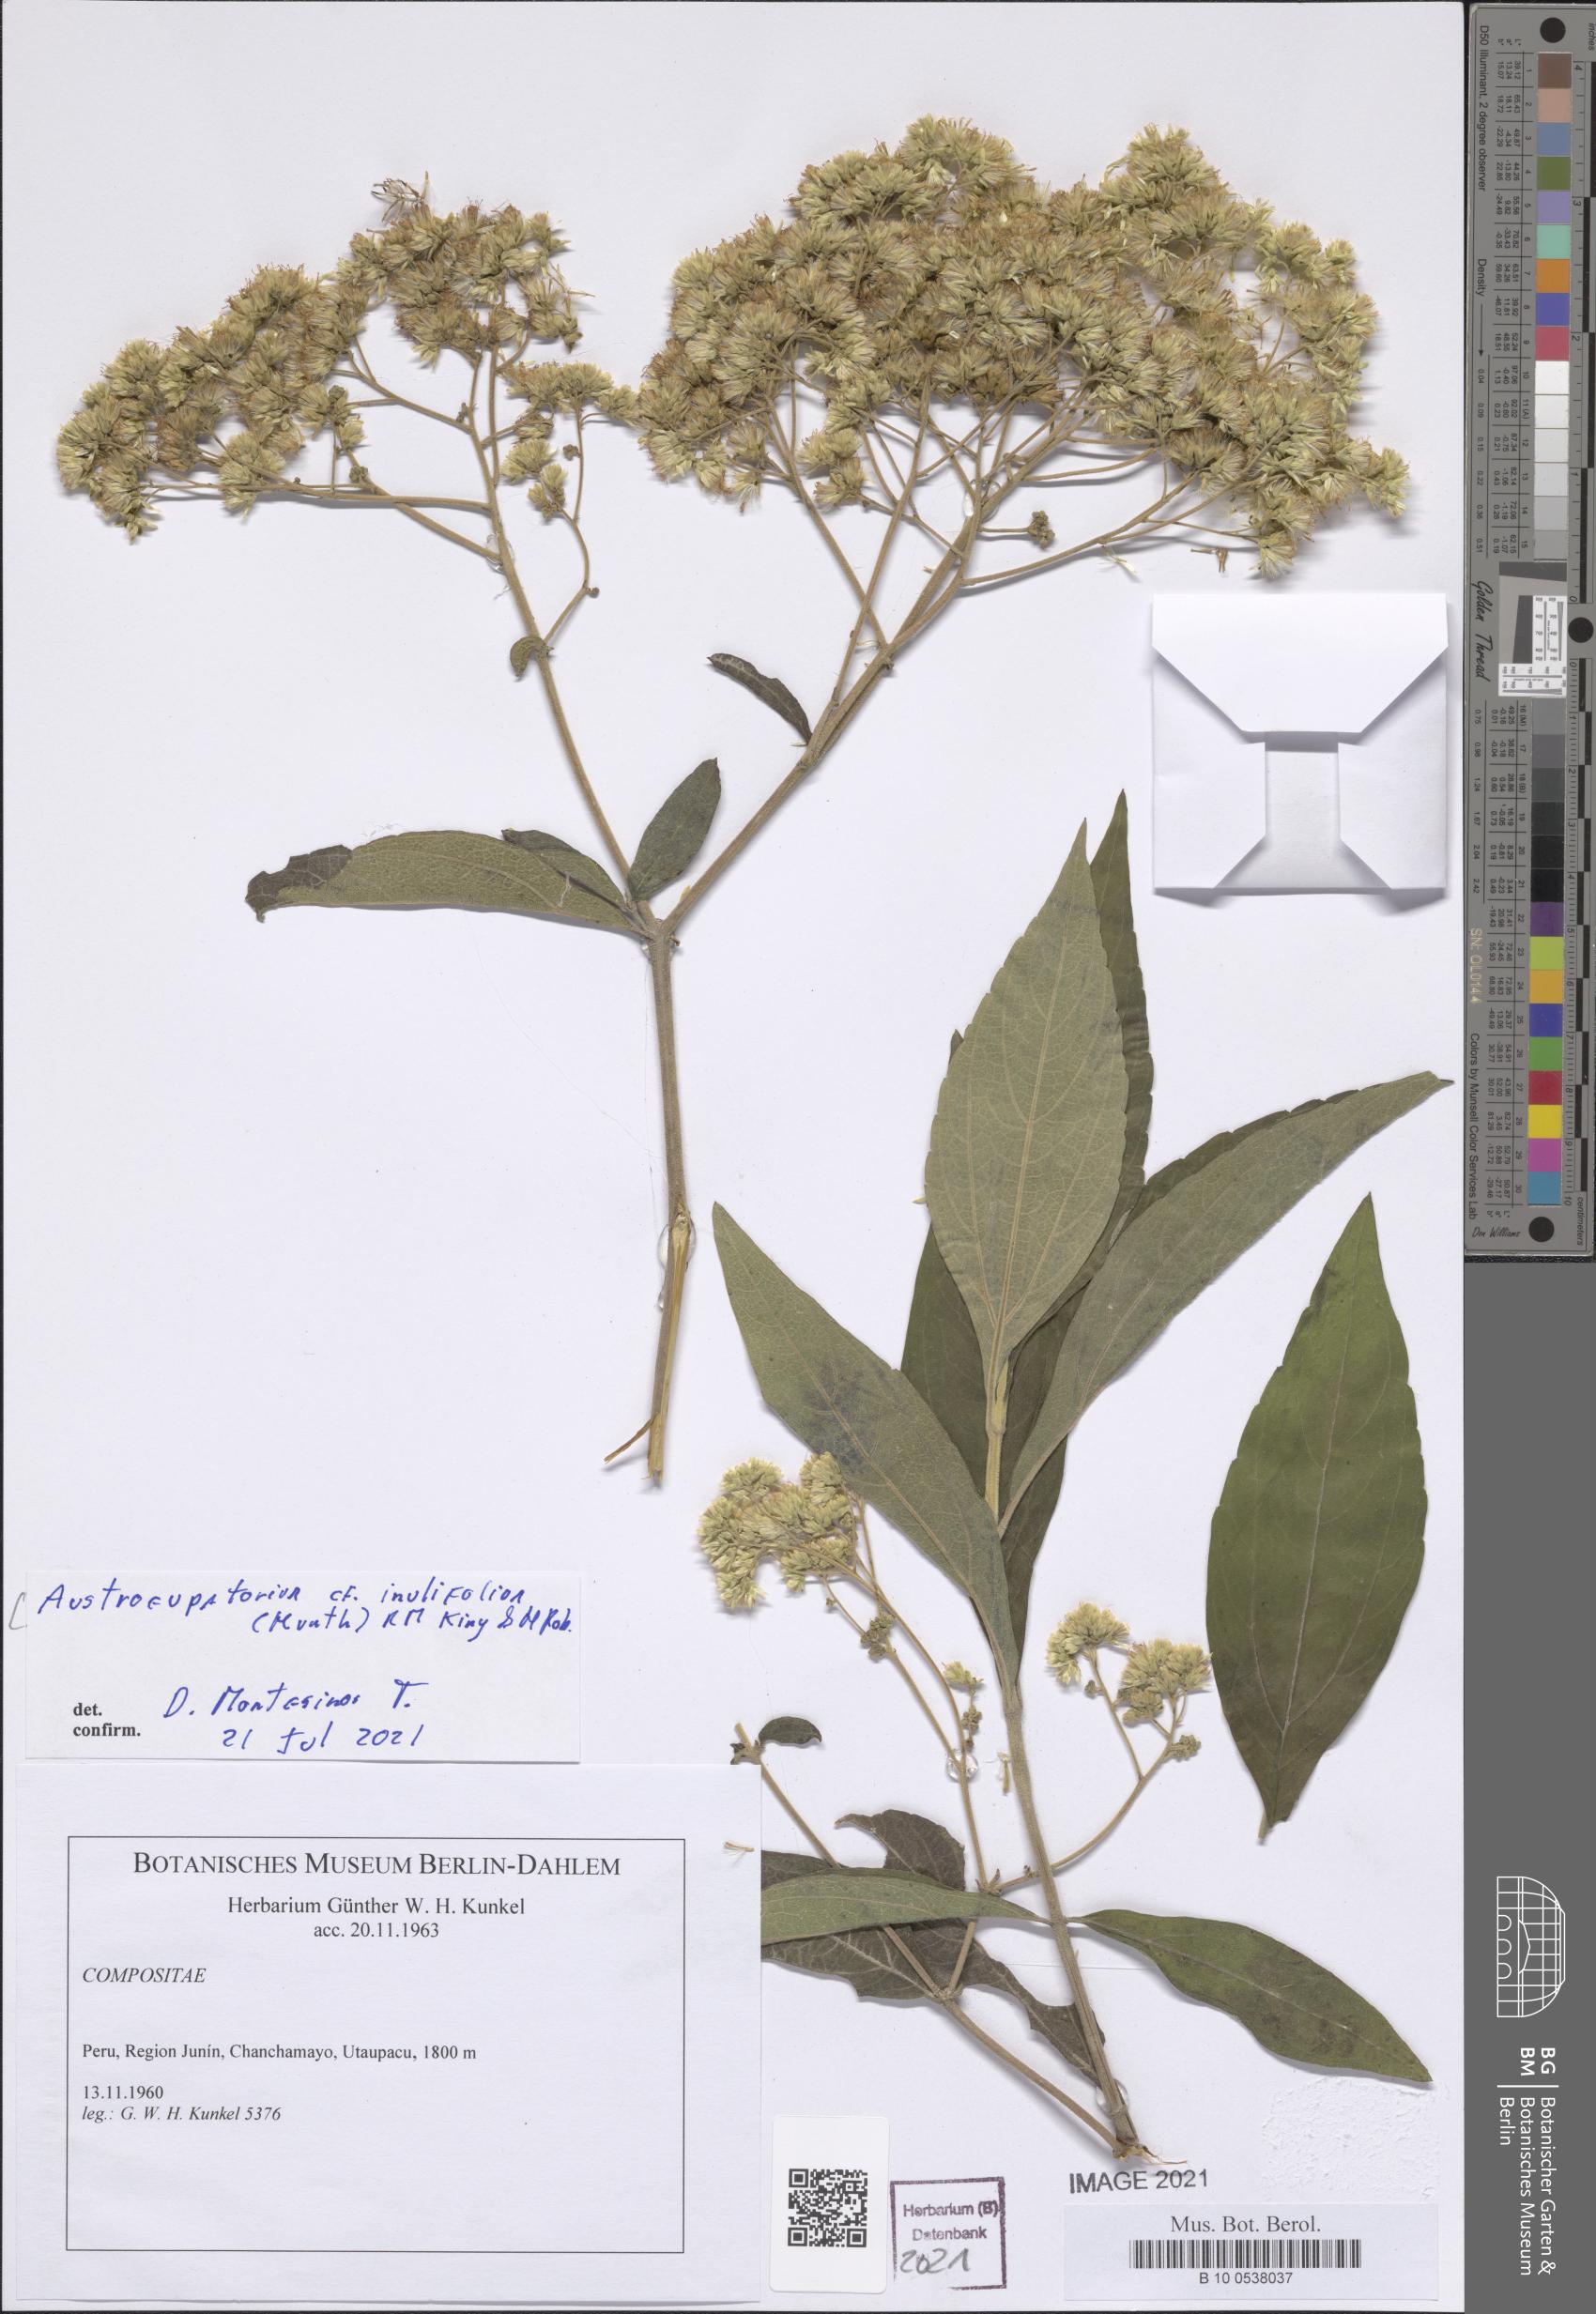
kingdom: Plantae
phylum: Tracheophyta
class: Magnoliopsida
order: Asterales
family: Asteraceae
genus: Austroeupatorium
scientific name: Austroeupatorium inulifolium
